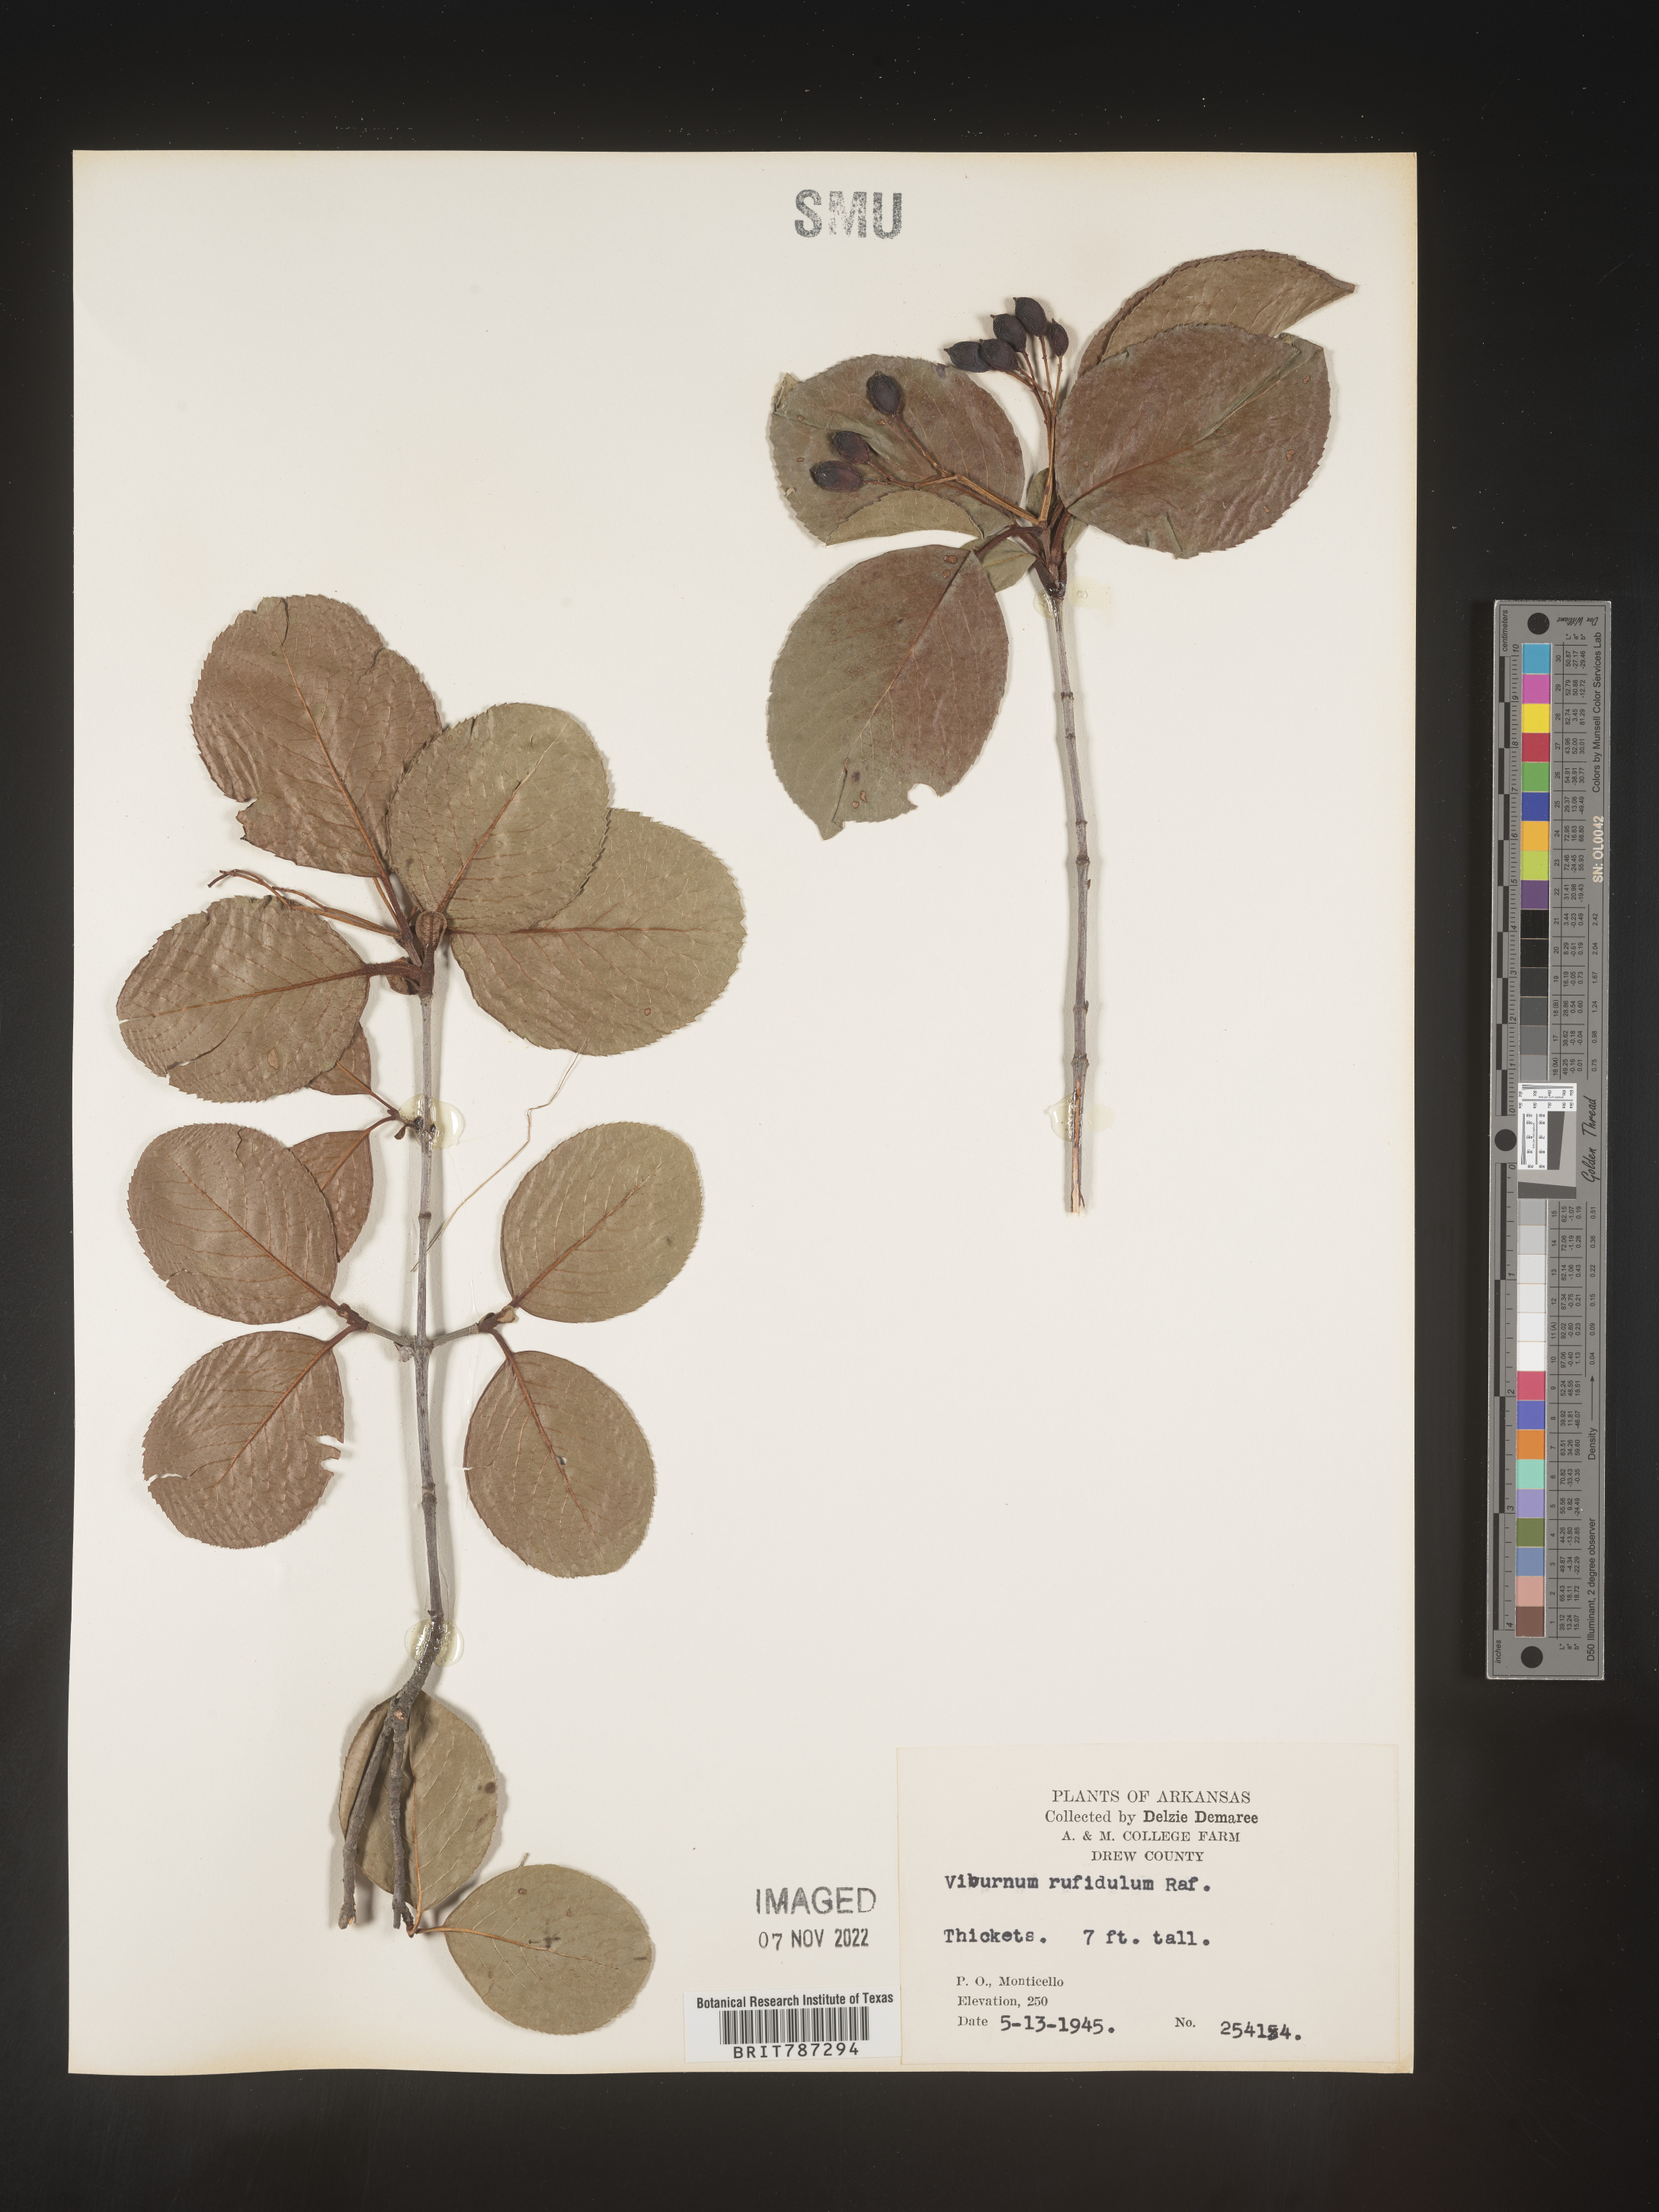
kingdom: Plantae
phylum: Tracheophyta
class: Magnoliopsida
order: Dipsacales
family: Viburnaceae
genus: Viburnum
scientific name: Viburnum rufidulum
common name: Blue haw
